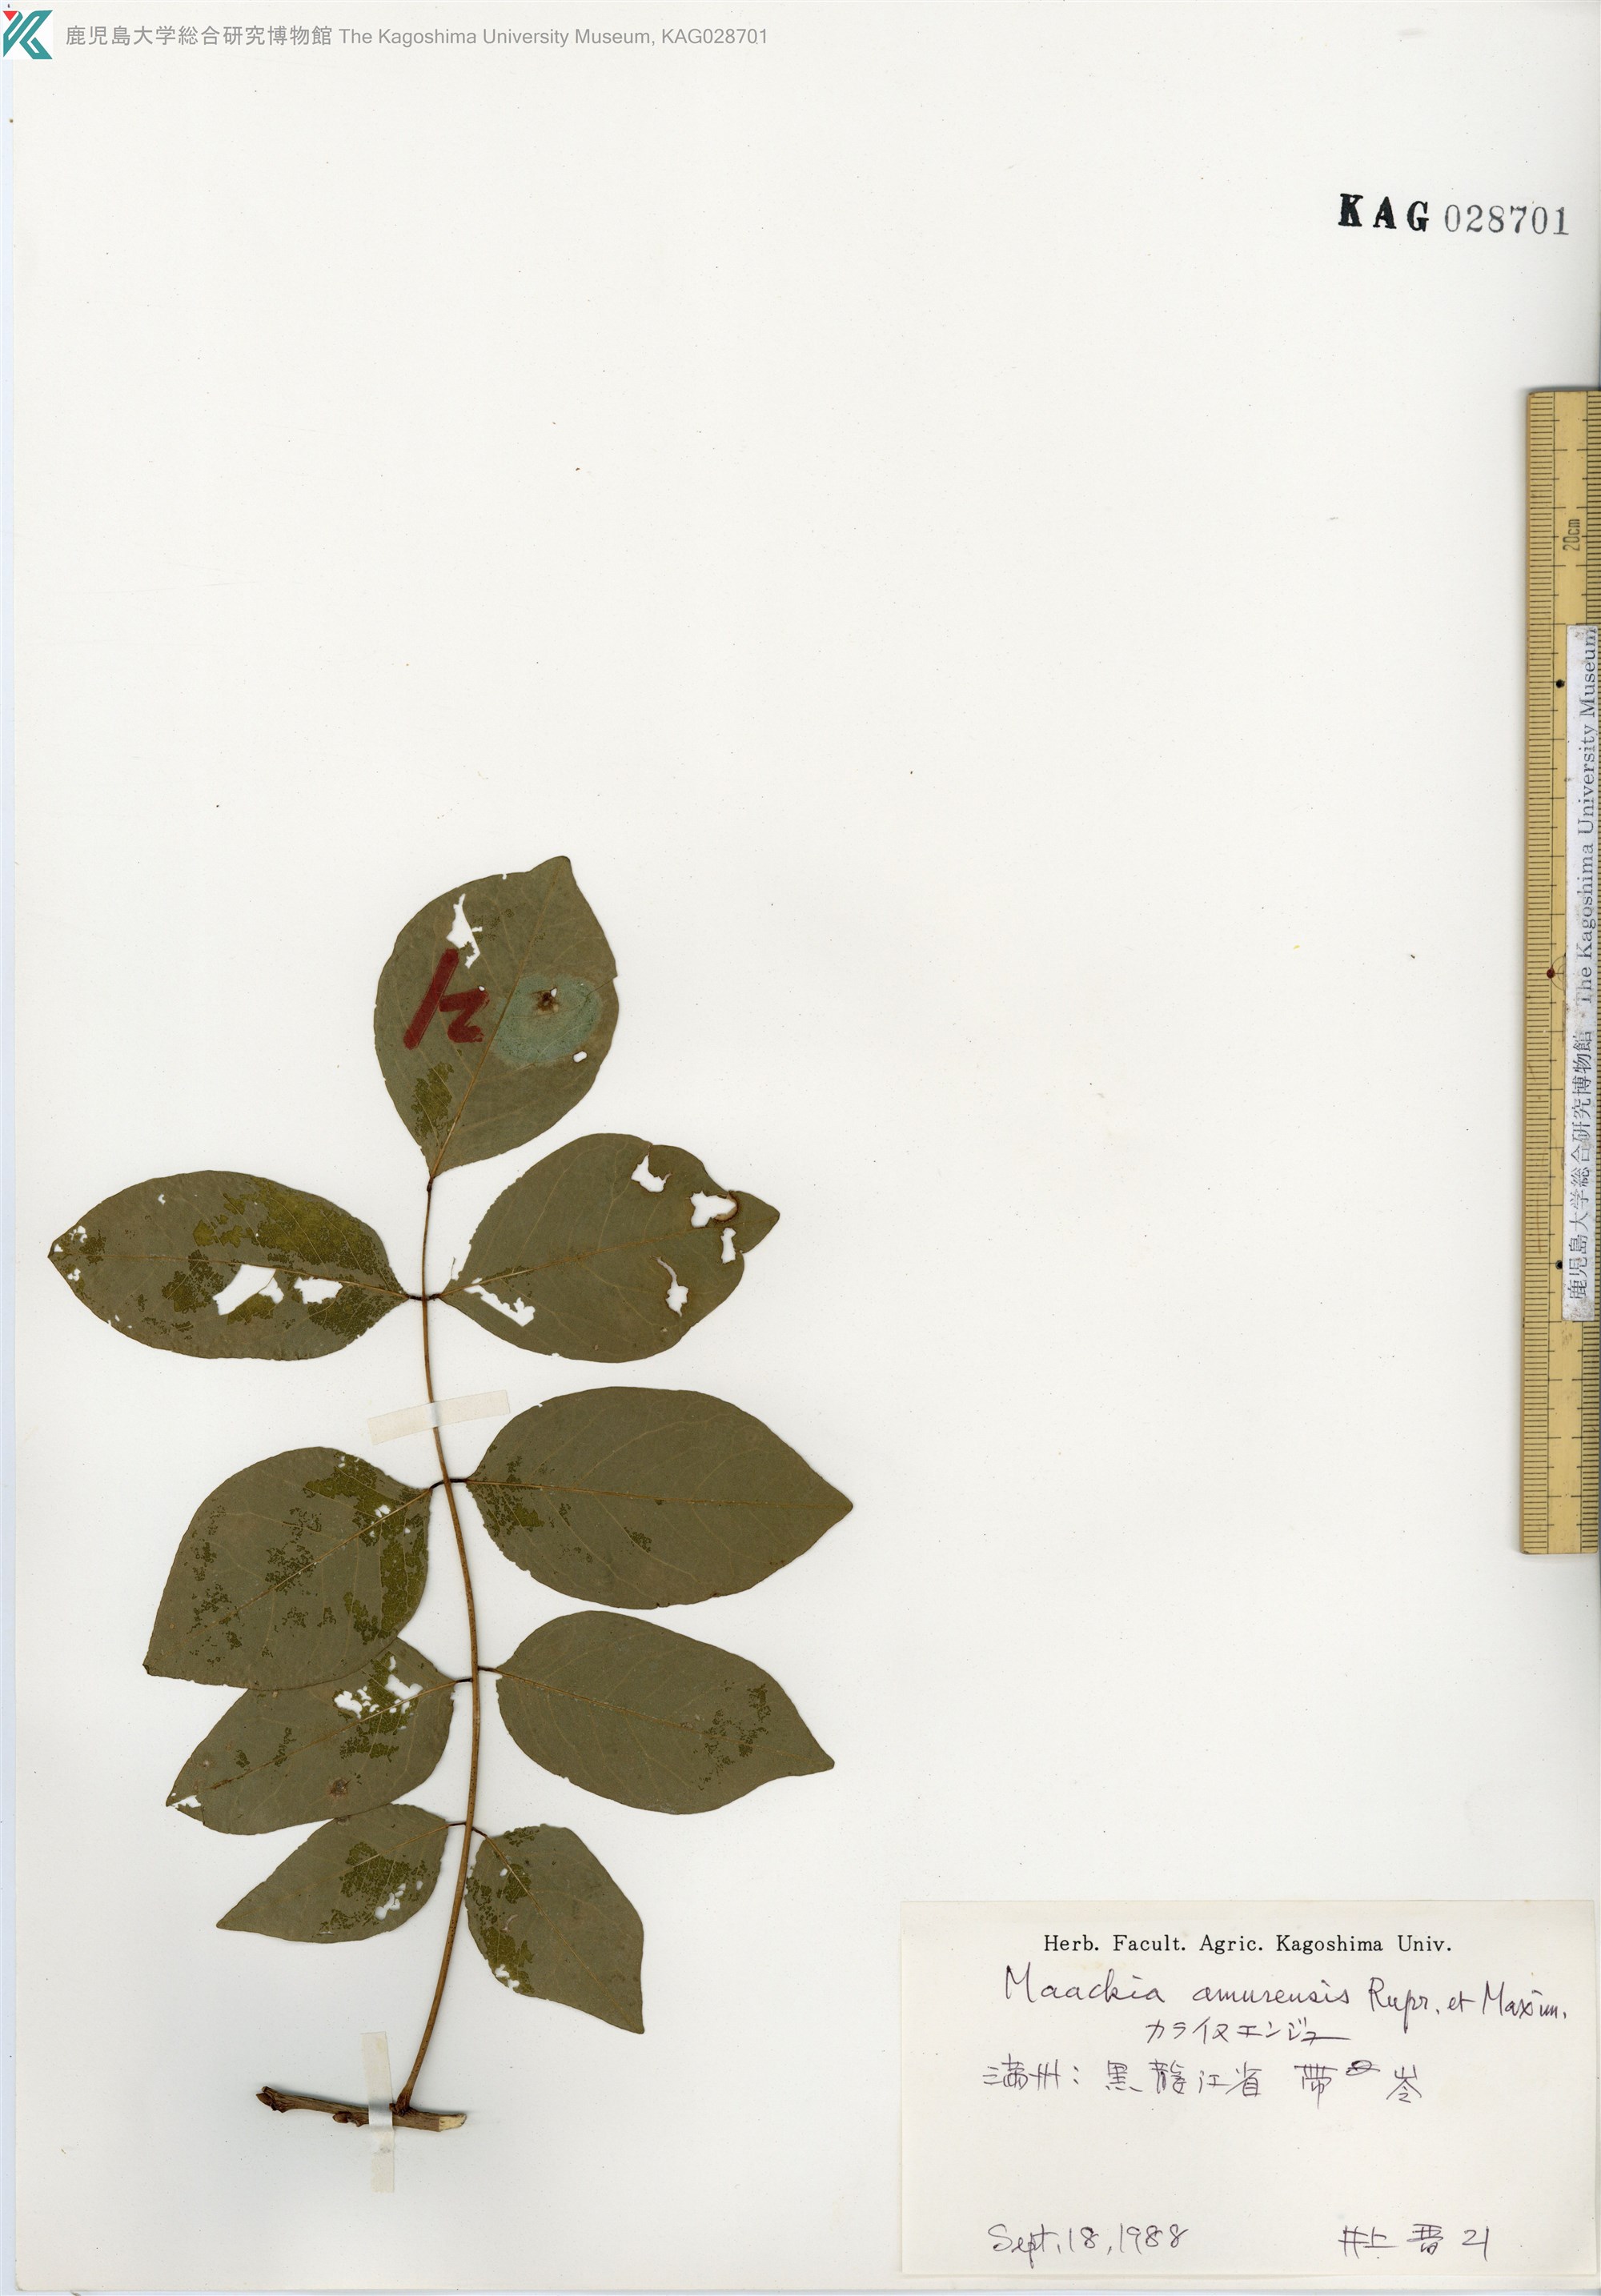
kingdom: Plantae
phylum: Tracheophyta
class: Magnoliopsida
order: Fabales
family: Fabaceae
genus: Maackia
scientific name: Maackia amurensis
